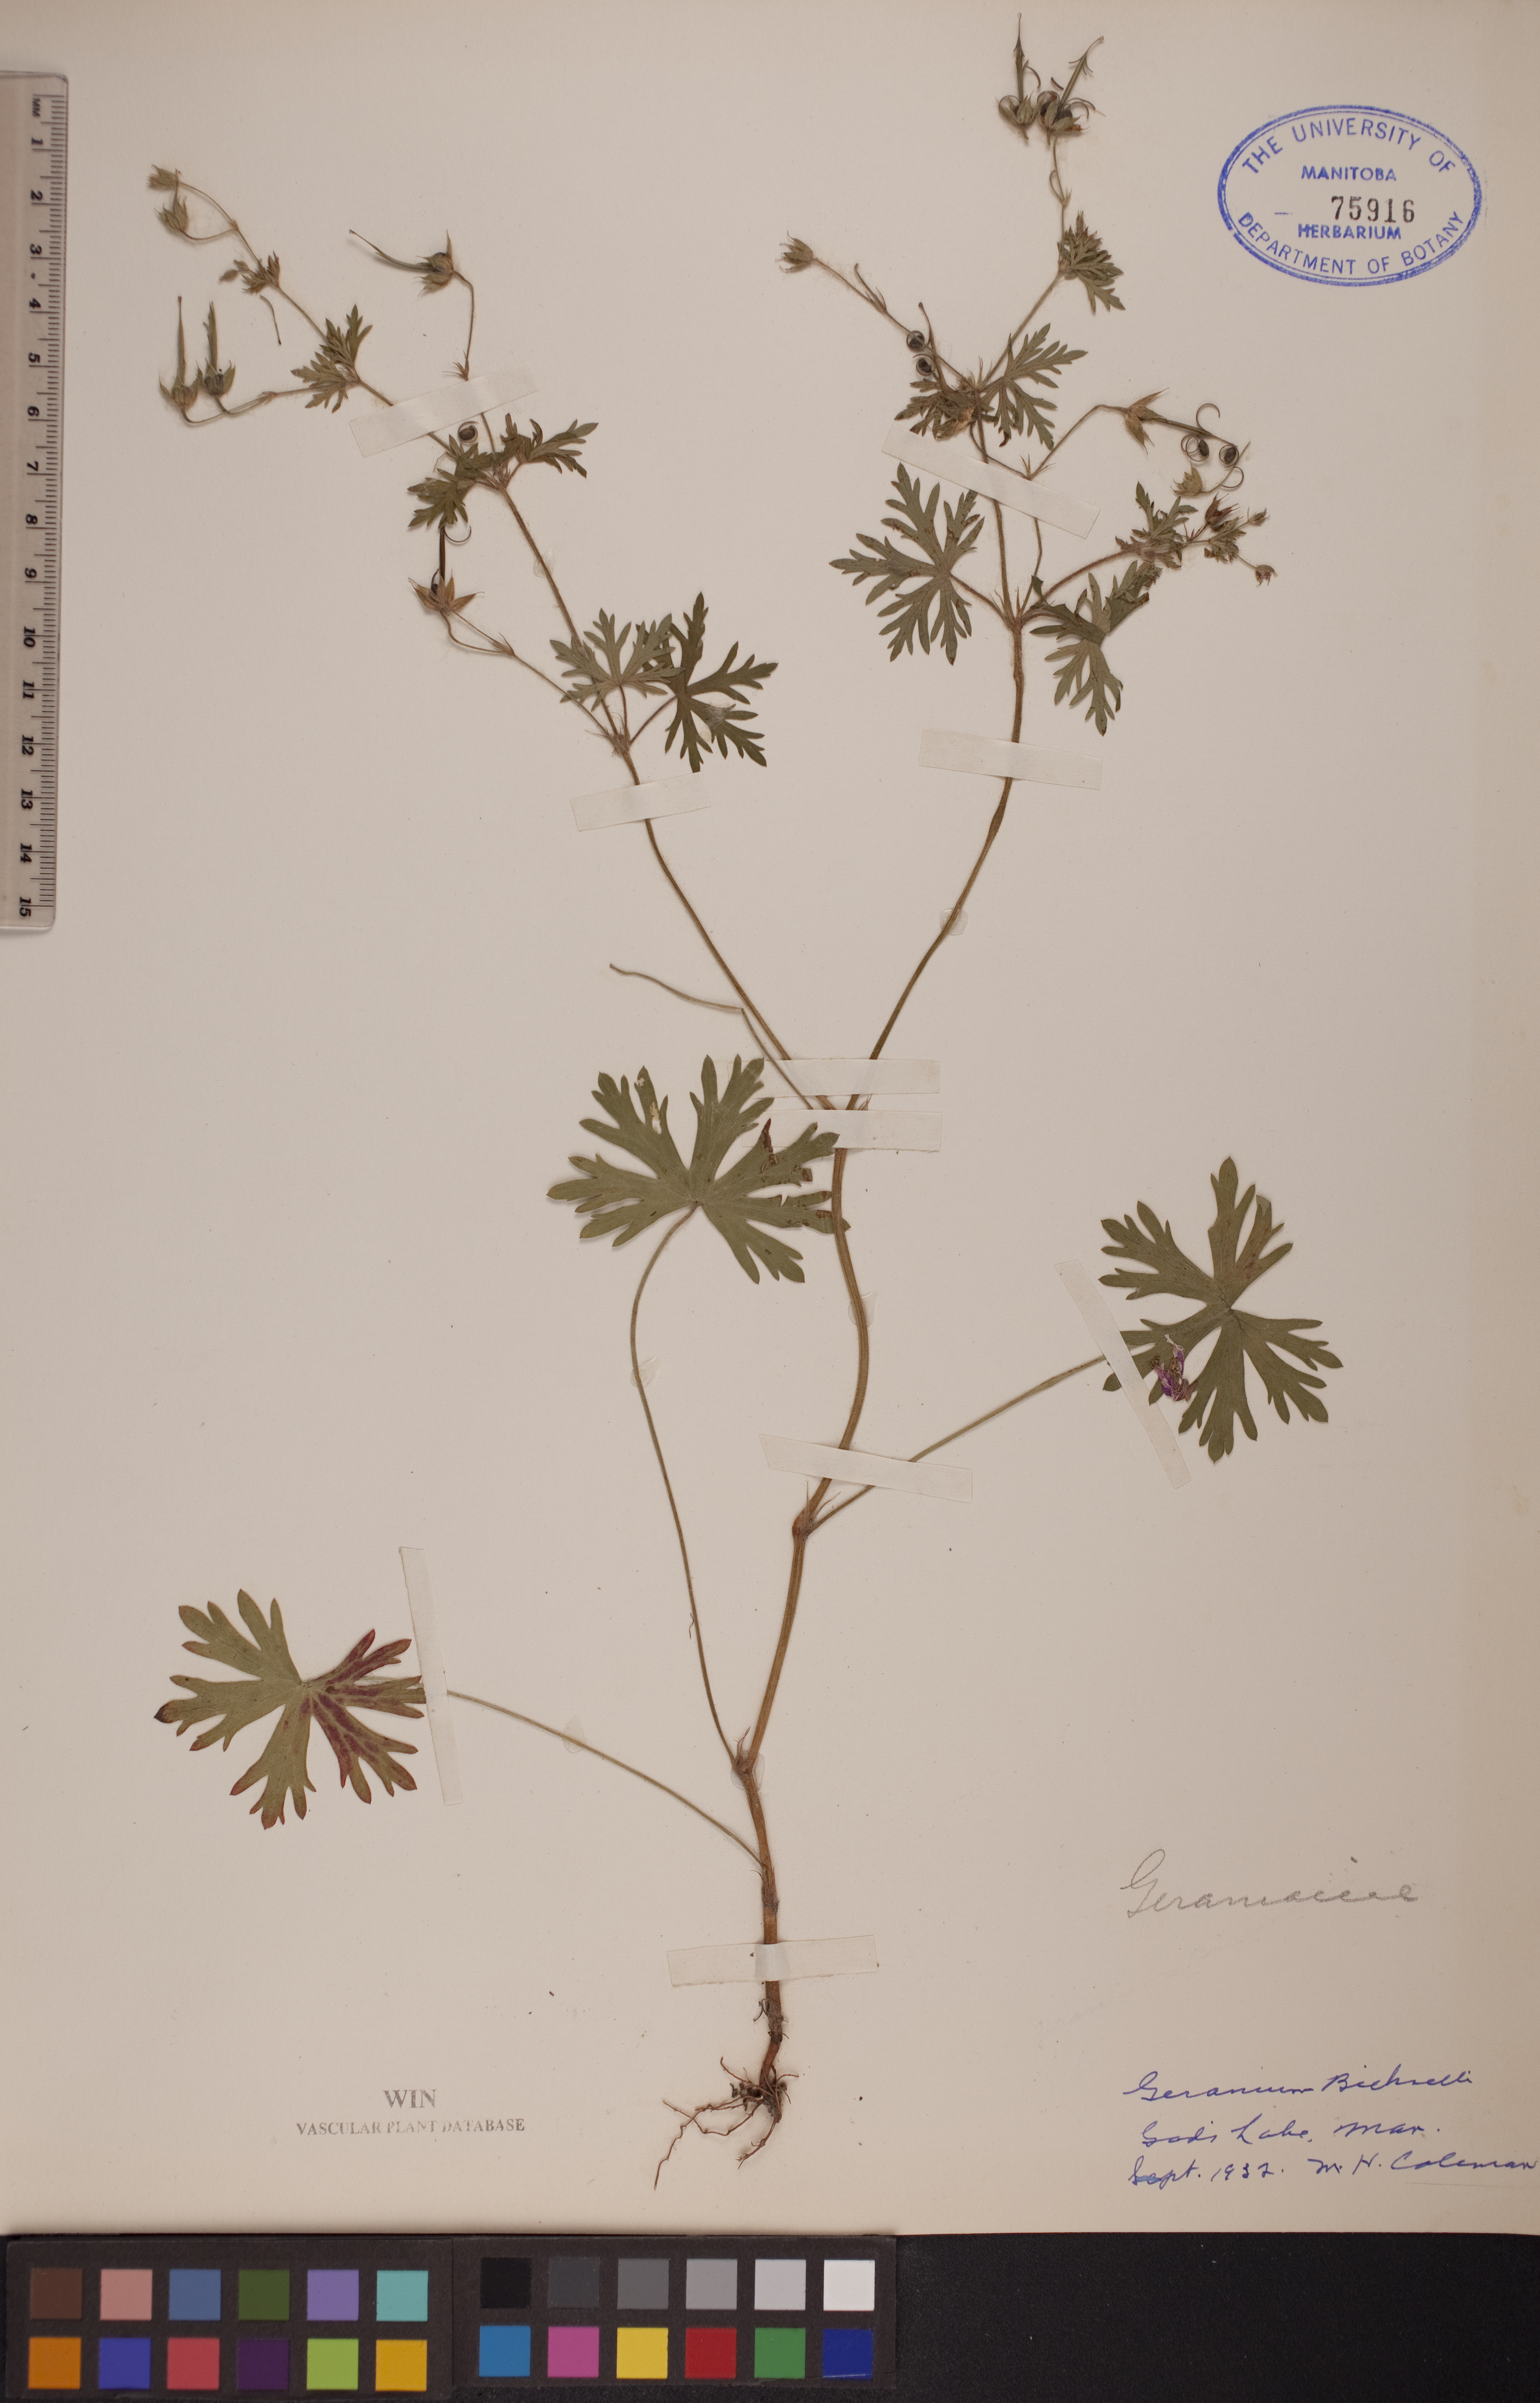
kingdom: Plantae
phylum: Tracheophyta
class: Magnoliopsida
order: Geraniales
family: Geraniaceae
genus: Geranium
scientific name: Geranium bicknellii
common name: Bicknell's cranesbill
